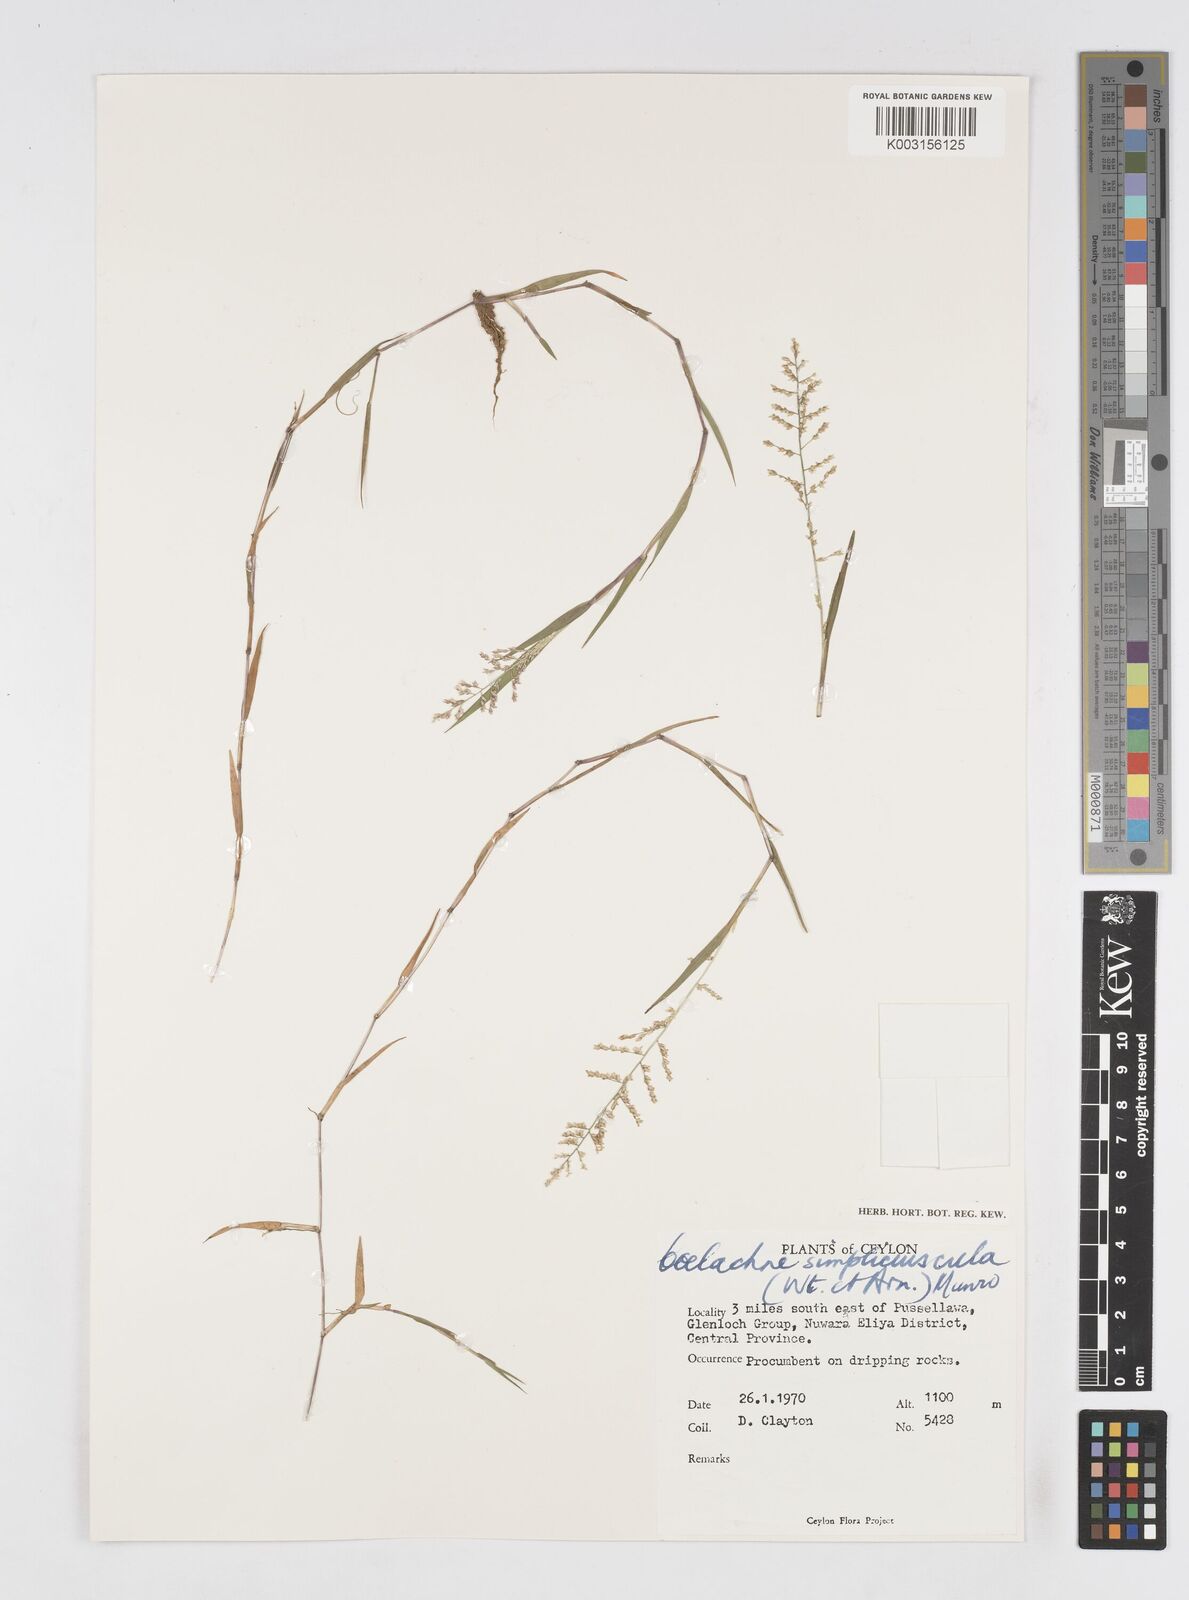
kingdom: Plantae
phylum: Tracheophyta
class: Liliopsida
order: Poales
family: Poaceae
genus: Coelachne
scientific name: Coelachne simpliciuscula
